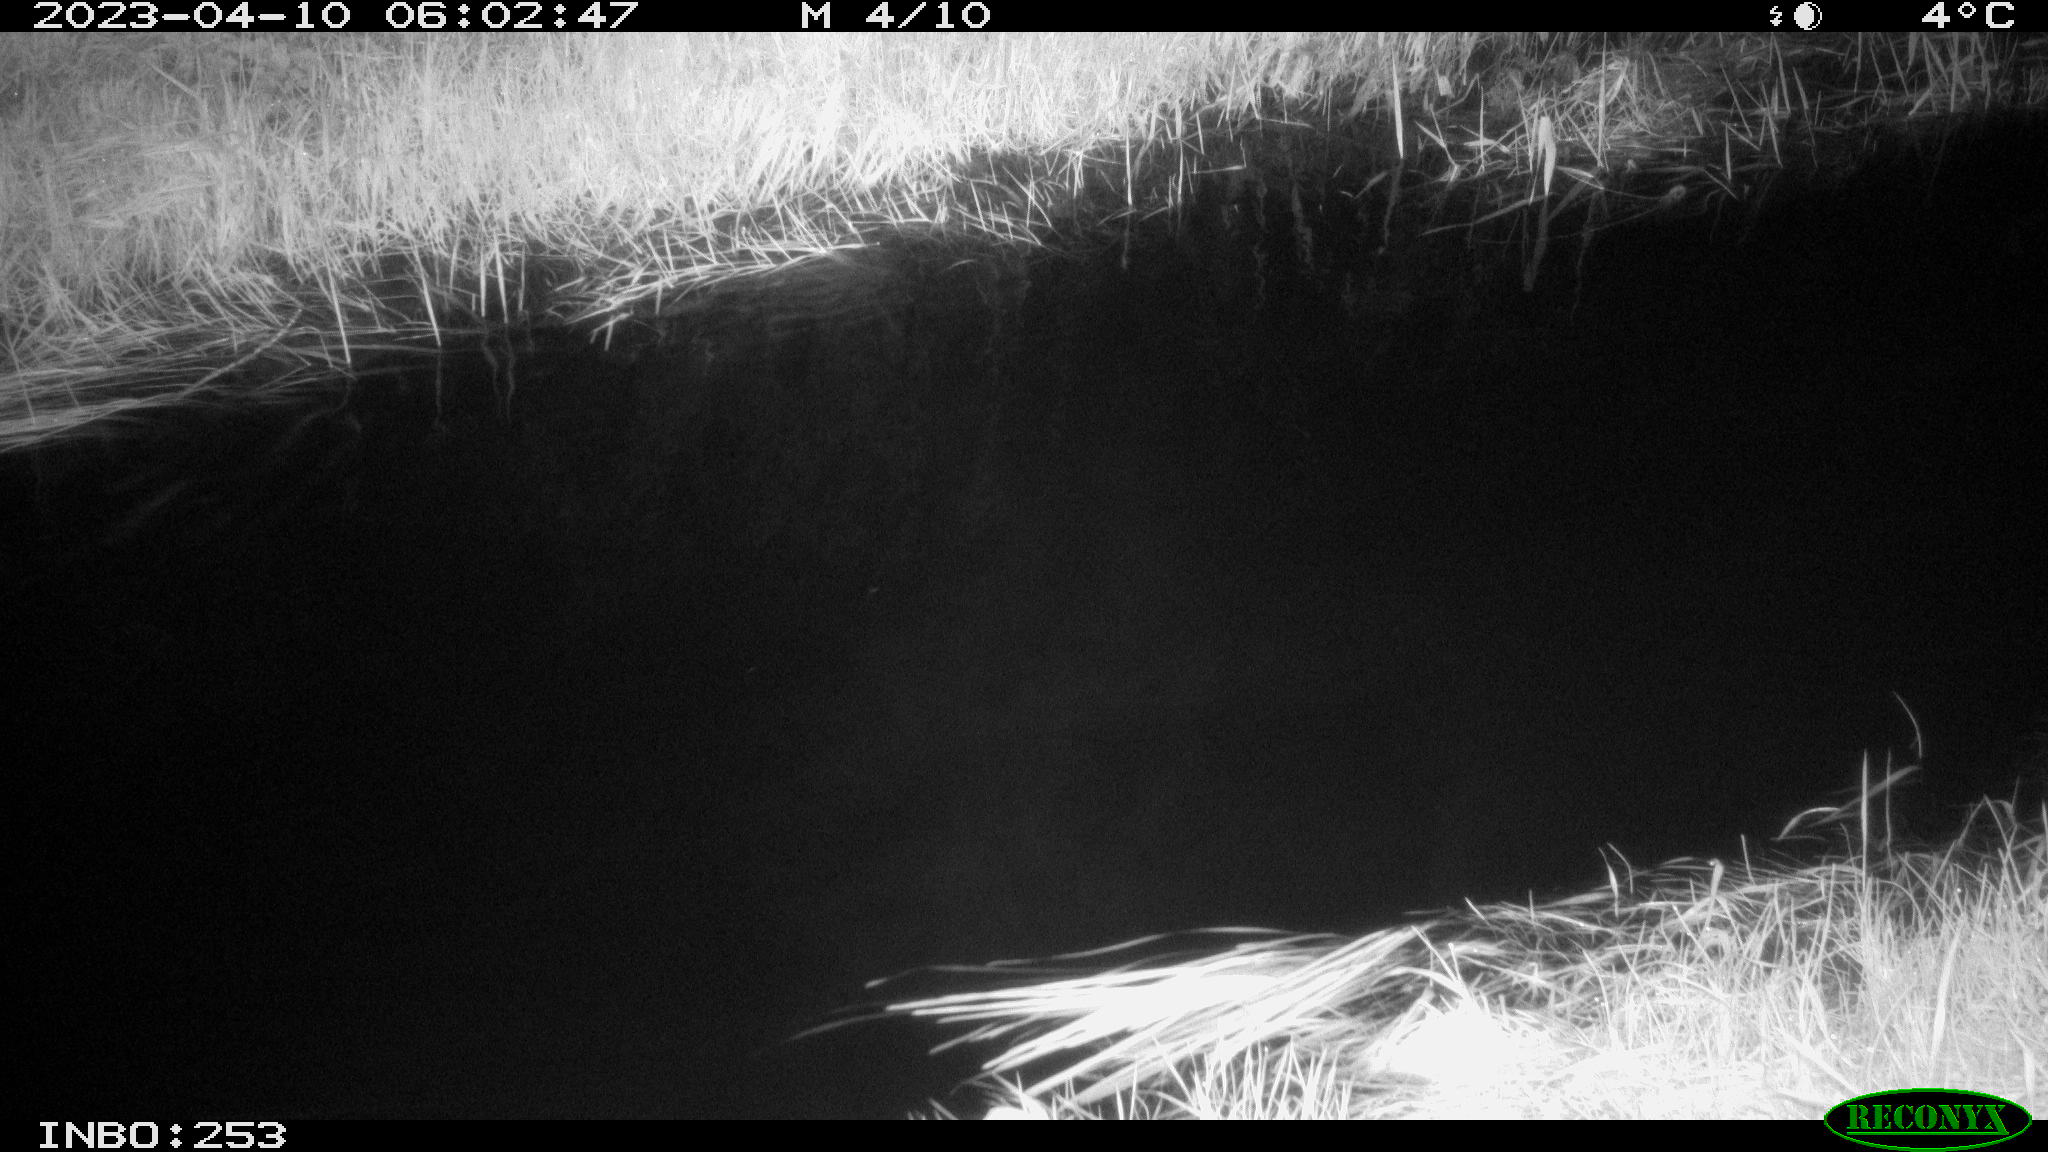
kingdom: Animalia
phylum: Chordata
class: Aves
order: Anseriformes
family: Anatidae
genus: Anas
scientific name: Anas
